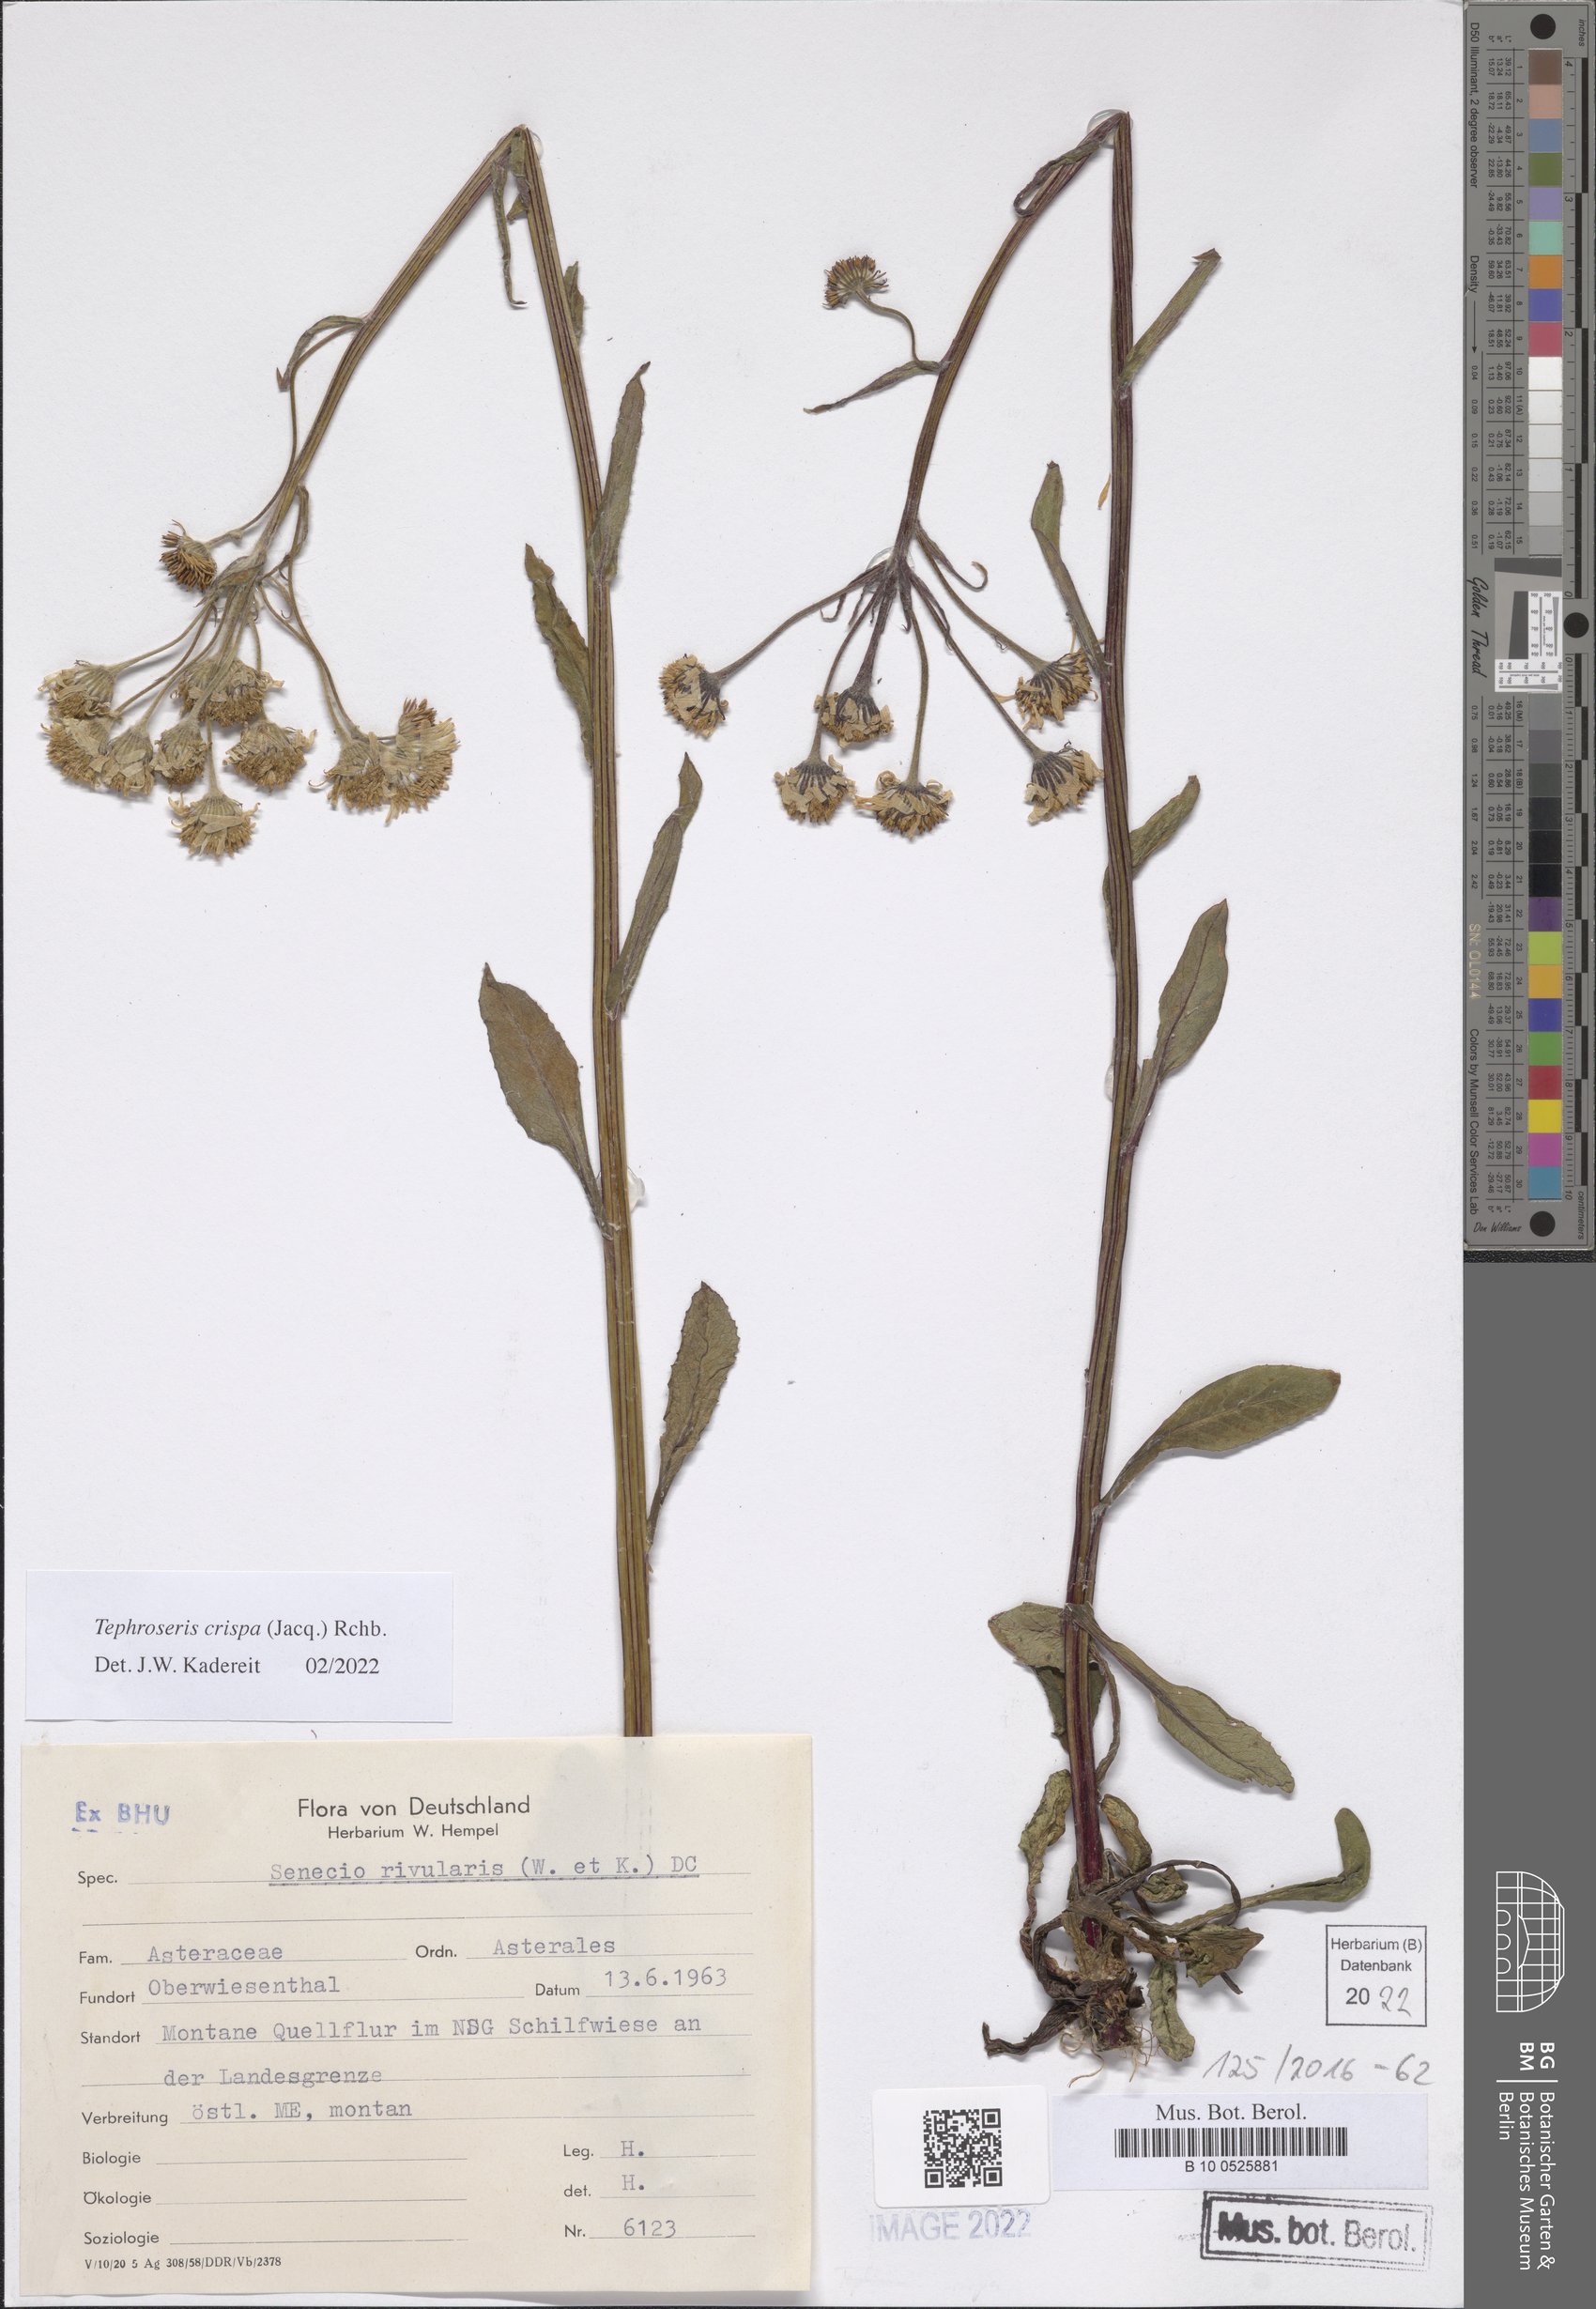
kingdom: Plantae
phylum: Tracheophyta
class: Magnoliopsida
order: Asterales
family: Asteraceae
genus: Tephroseris
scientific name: Tephroseris crispa
